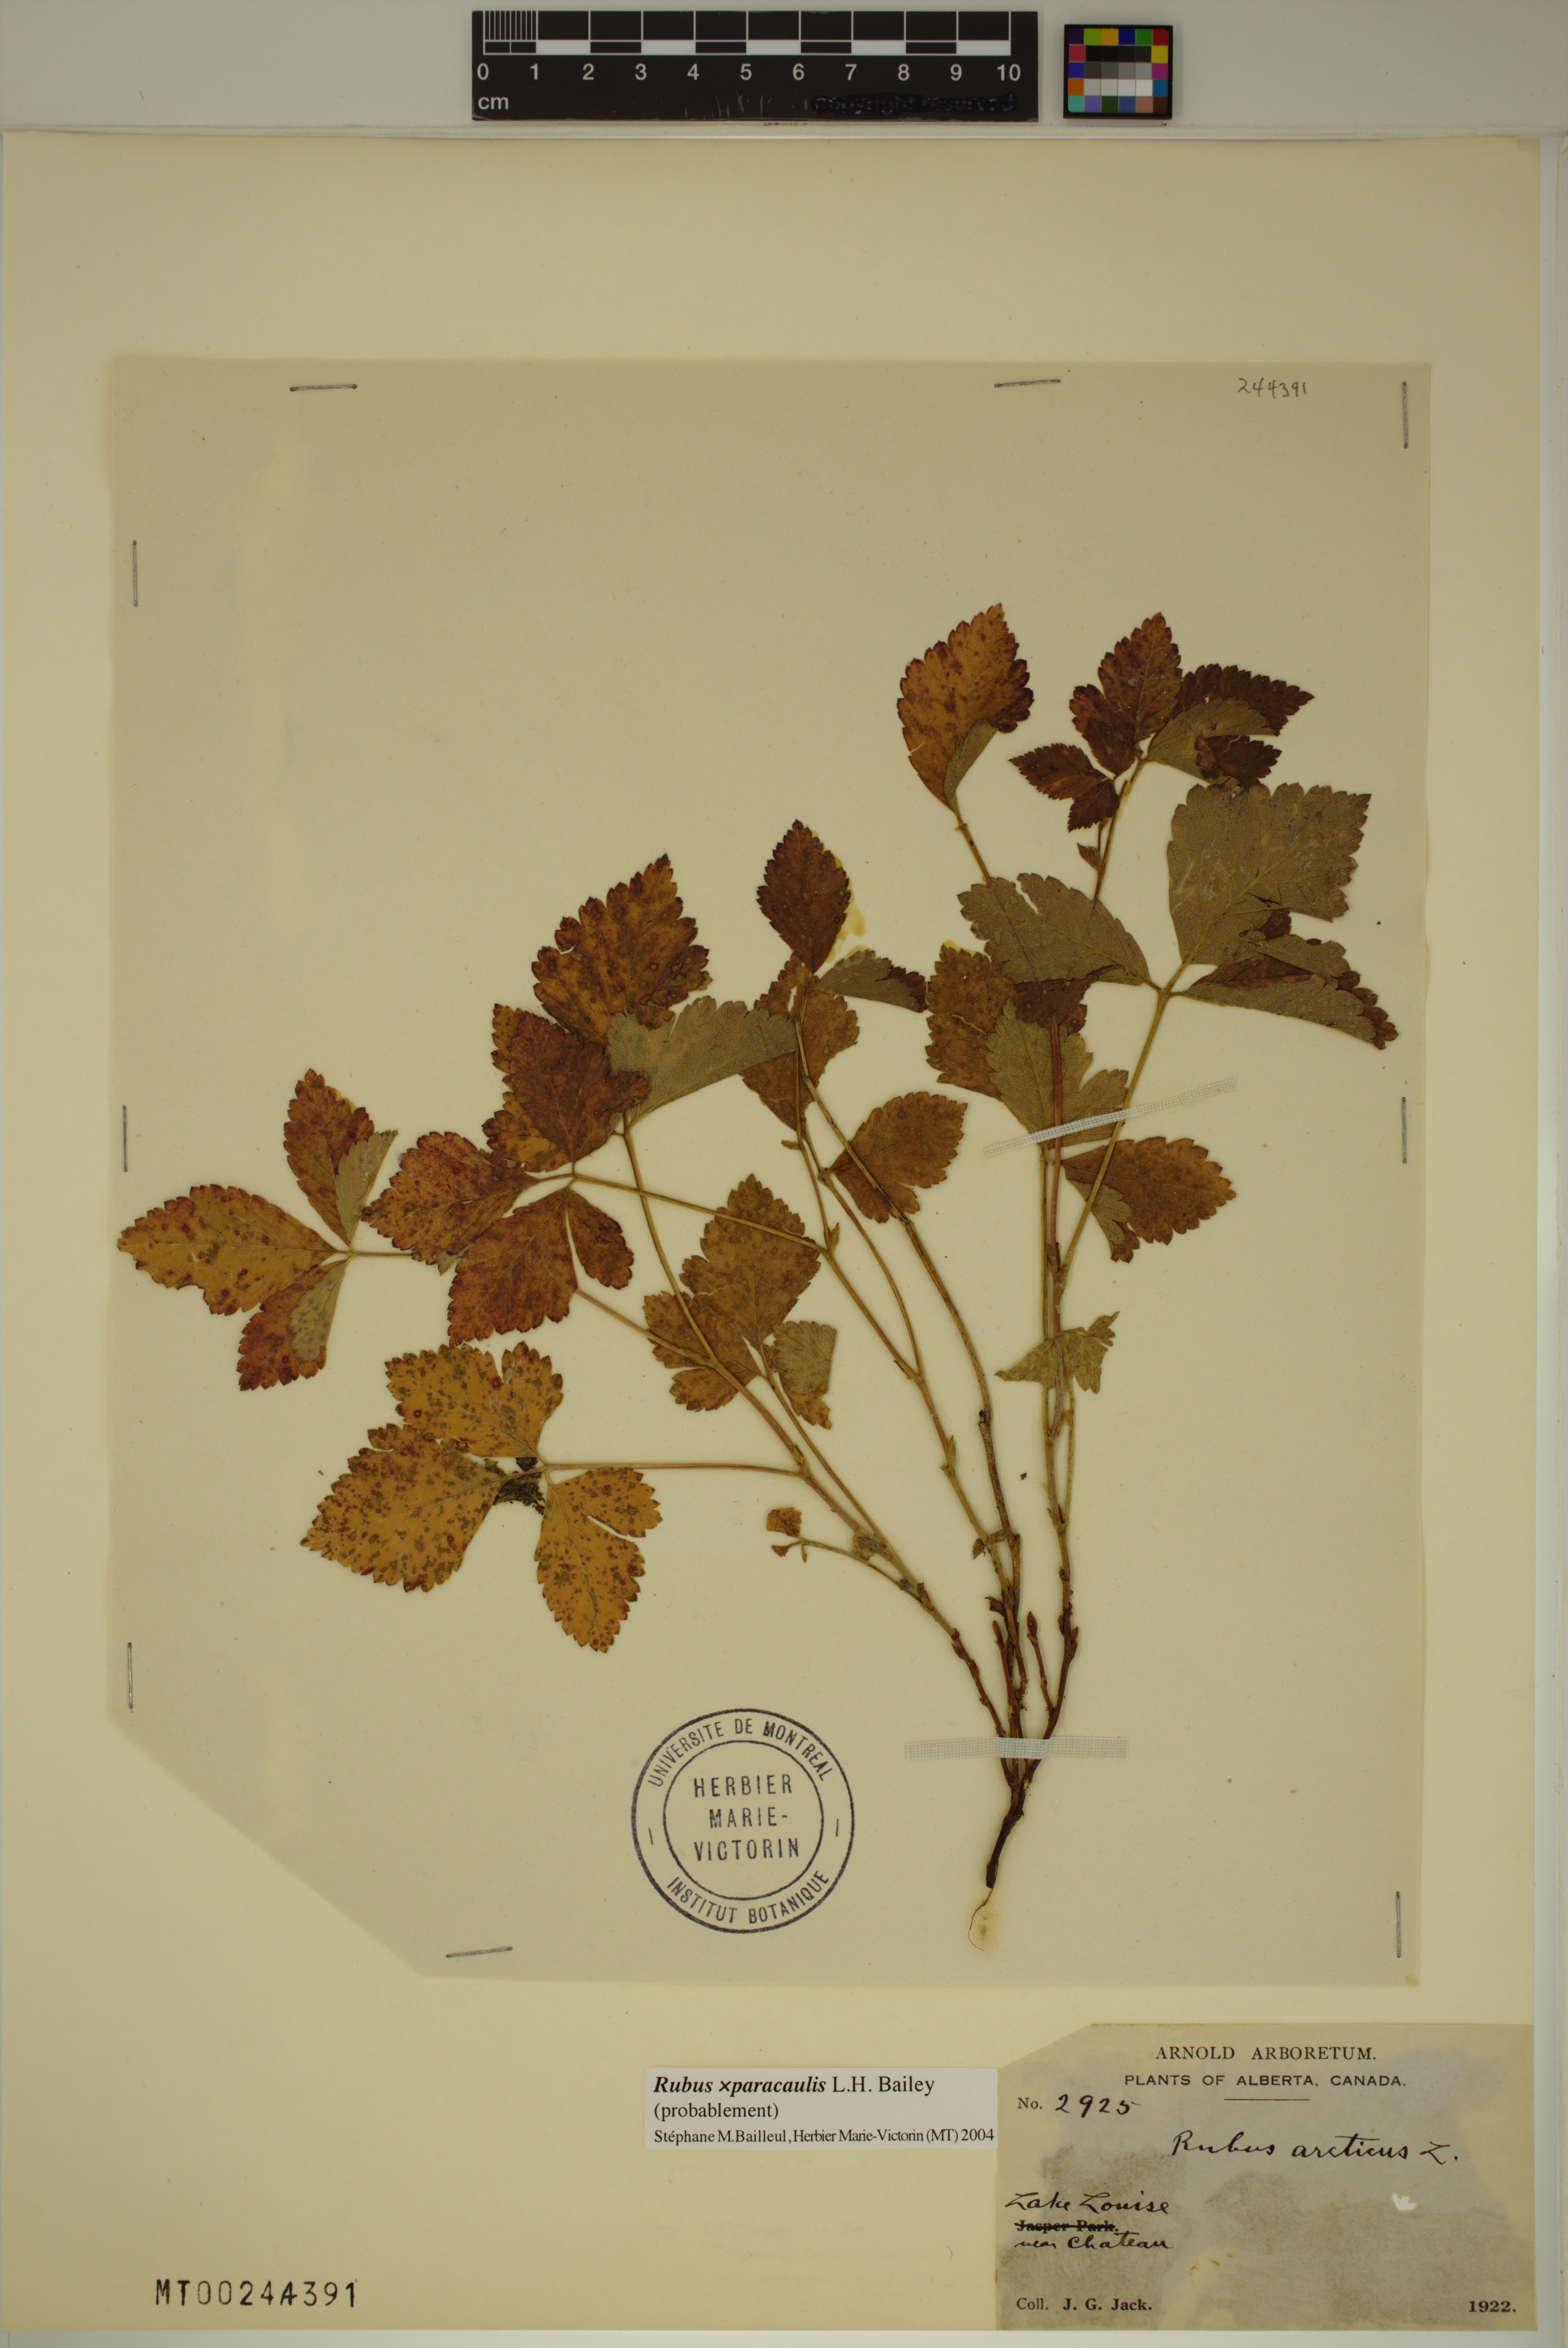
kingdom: Plantae
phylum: Tracheophyta
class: Magnoliopsida
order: Rosales
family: Rosaceae
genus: Rubus
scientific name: Rubus paracaulis
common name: Dwarf white-flowered raspberry
